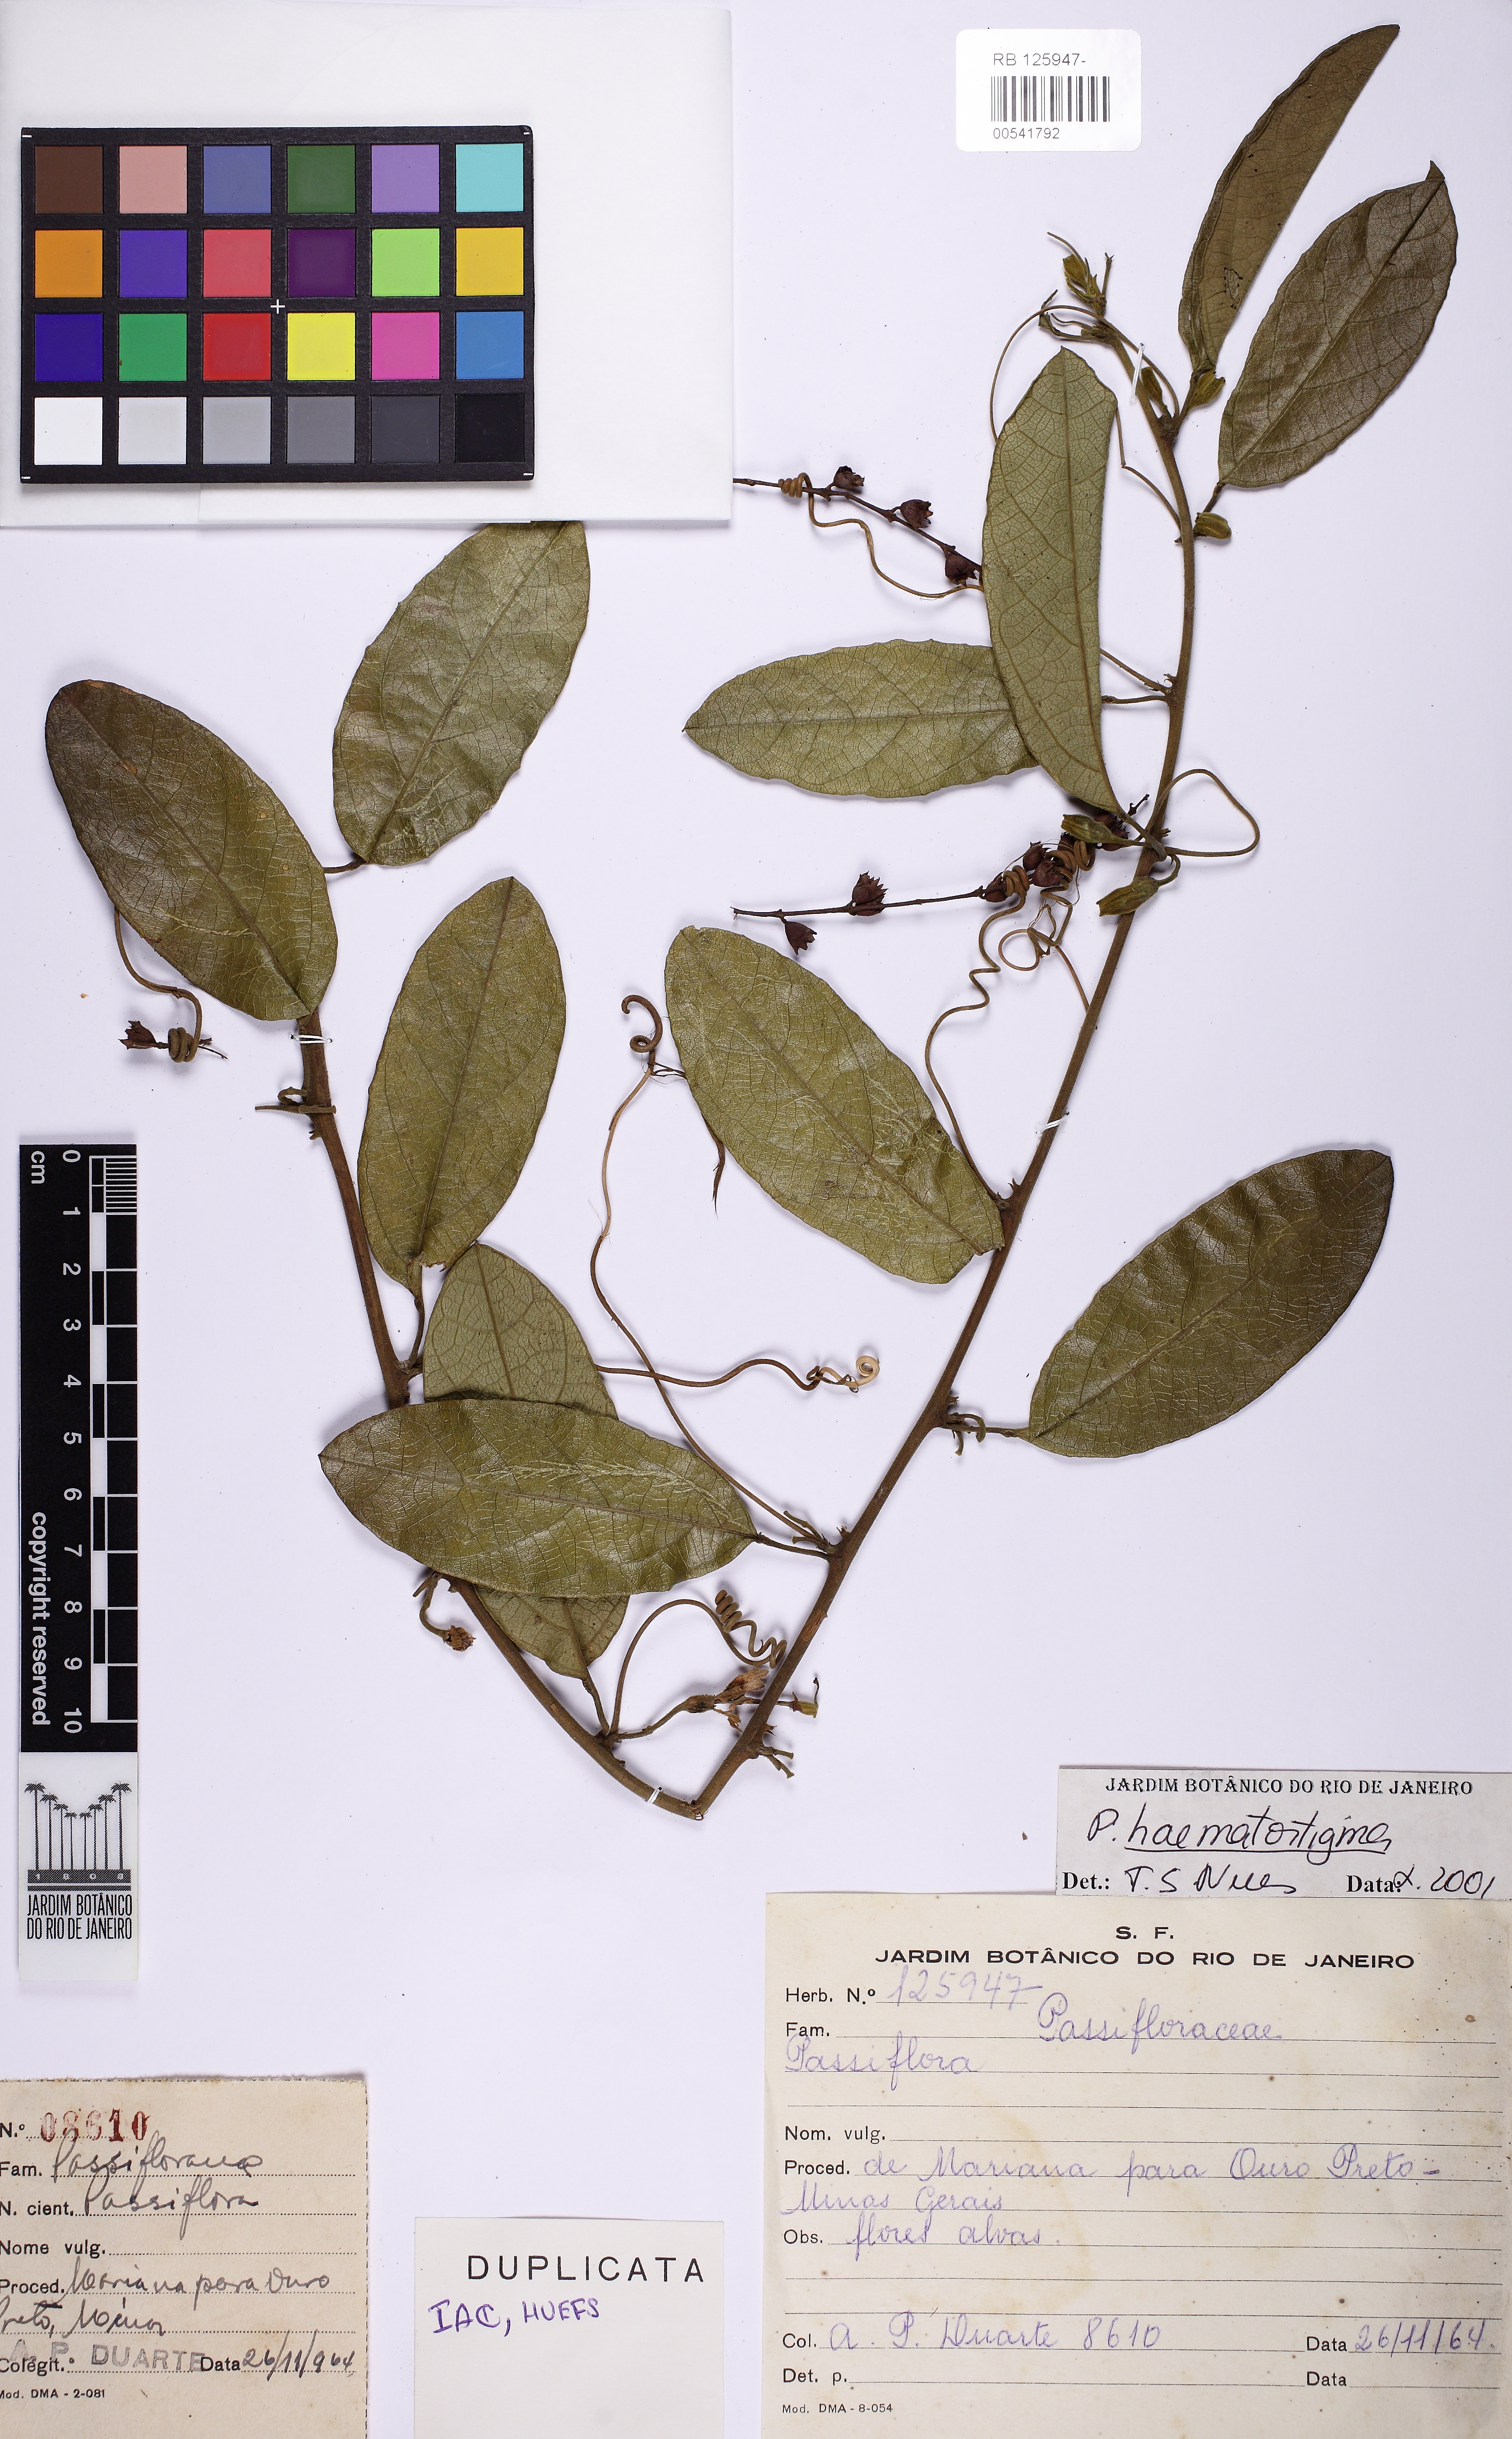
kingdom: Plantae
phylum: Tracheophyta
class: Magnoliopsida
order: Malpighiales
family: Passifloraceae
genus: Passiflora
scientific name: Passiflora haematostigma
